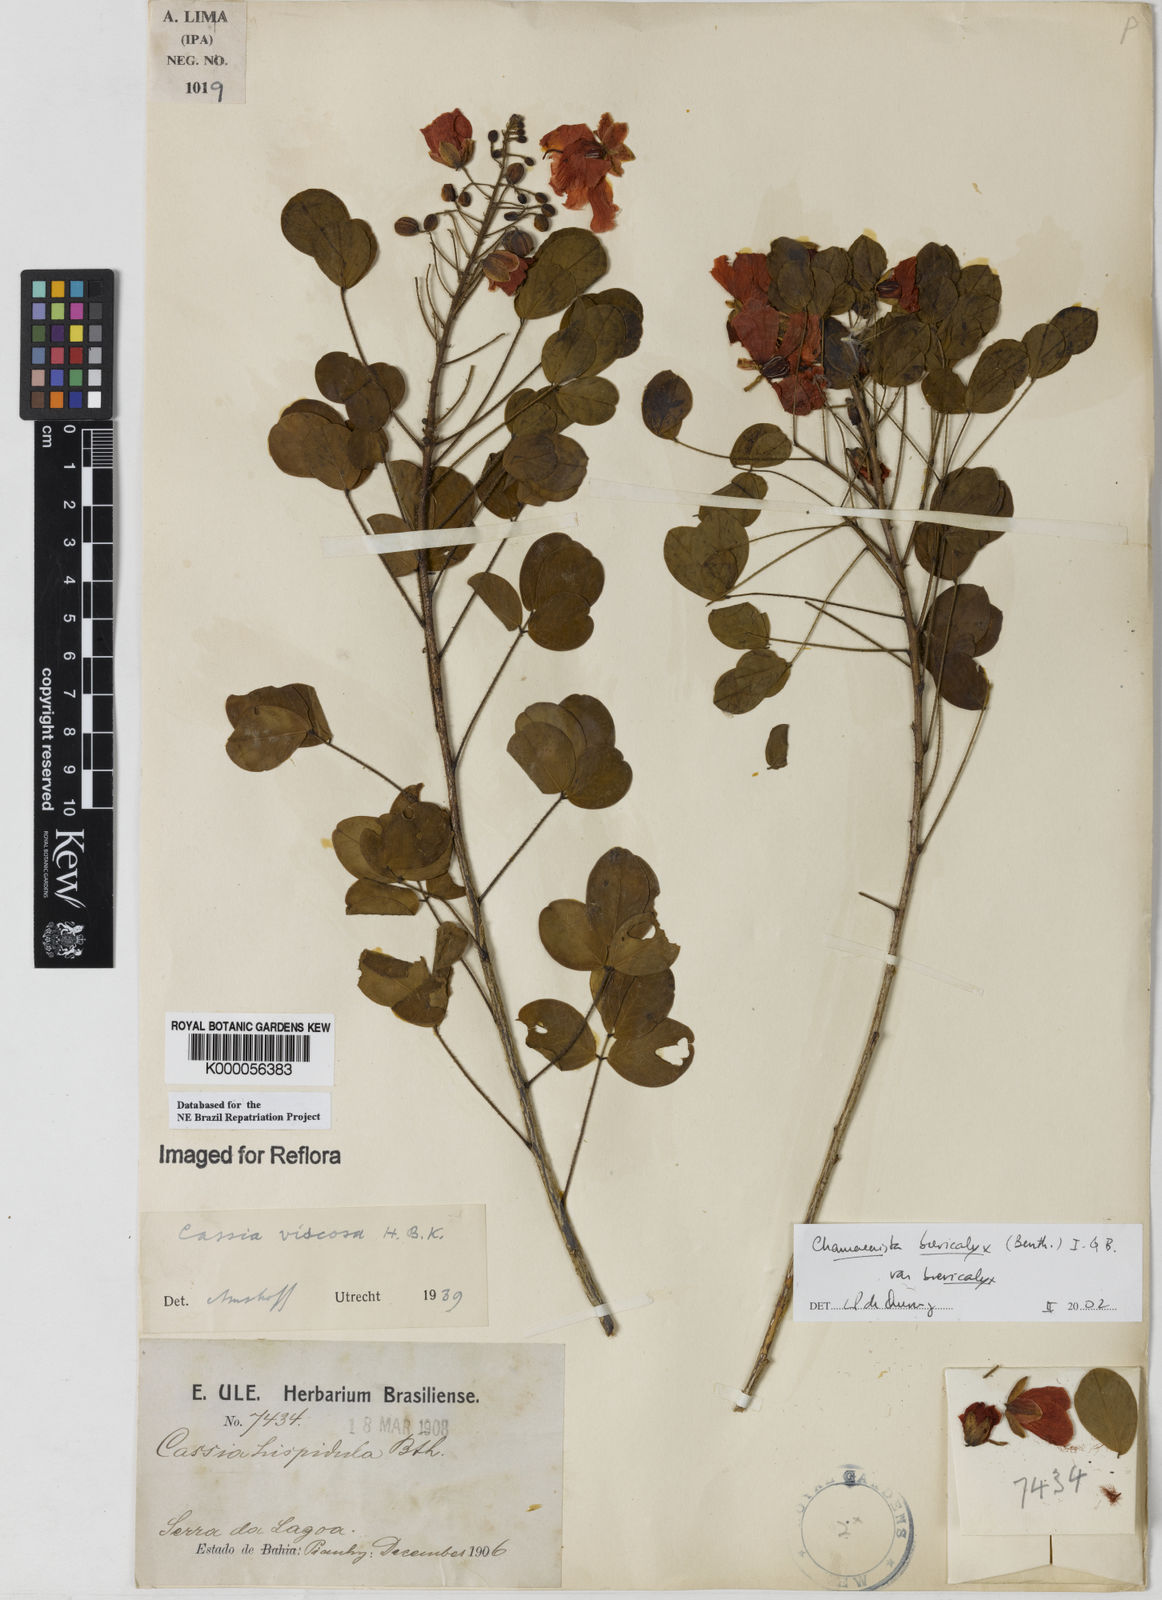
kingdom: Plantae
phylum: Tracheophyta
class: Magnoliopsida
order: Fabales
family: Fabaceae
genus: Chamaecrista
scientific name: Chamaecrista brevicalyx
